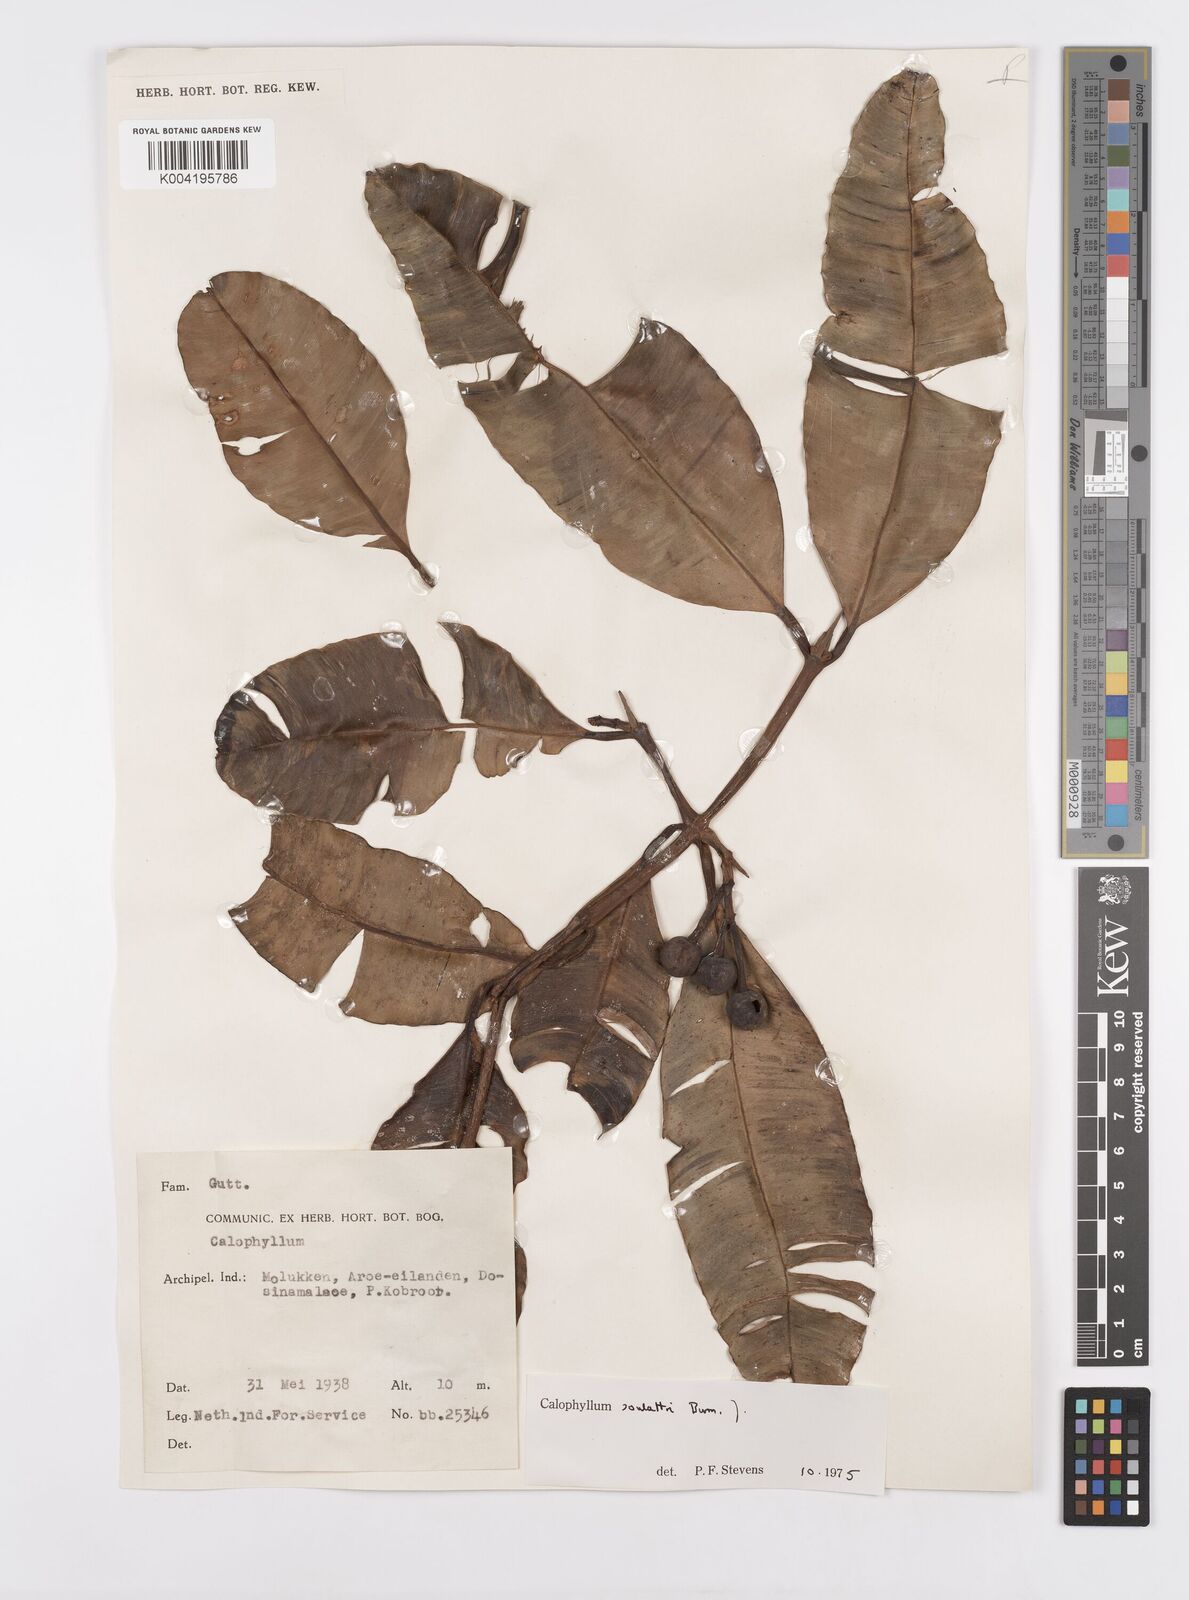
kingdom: Plantae
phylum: Tracheophyta
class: Magnoliopsida
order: Malpighiales
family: Calophyllaceae
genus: Calophyllum
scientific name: Calophyllum soulattri
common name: Bitangoor boonot
